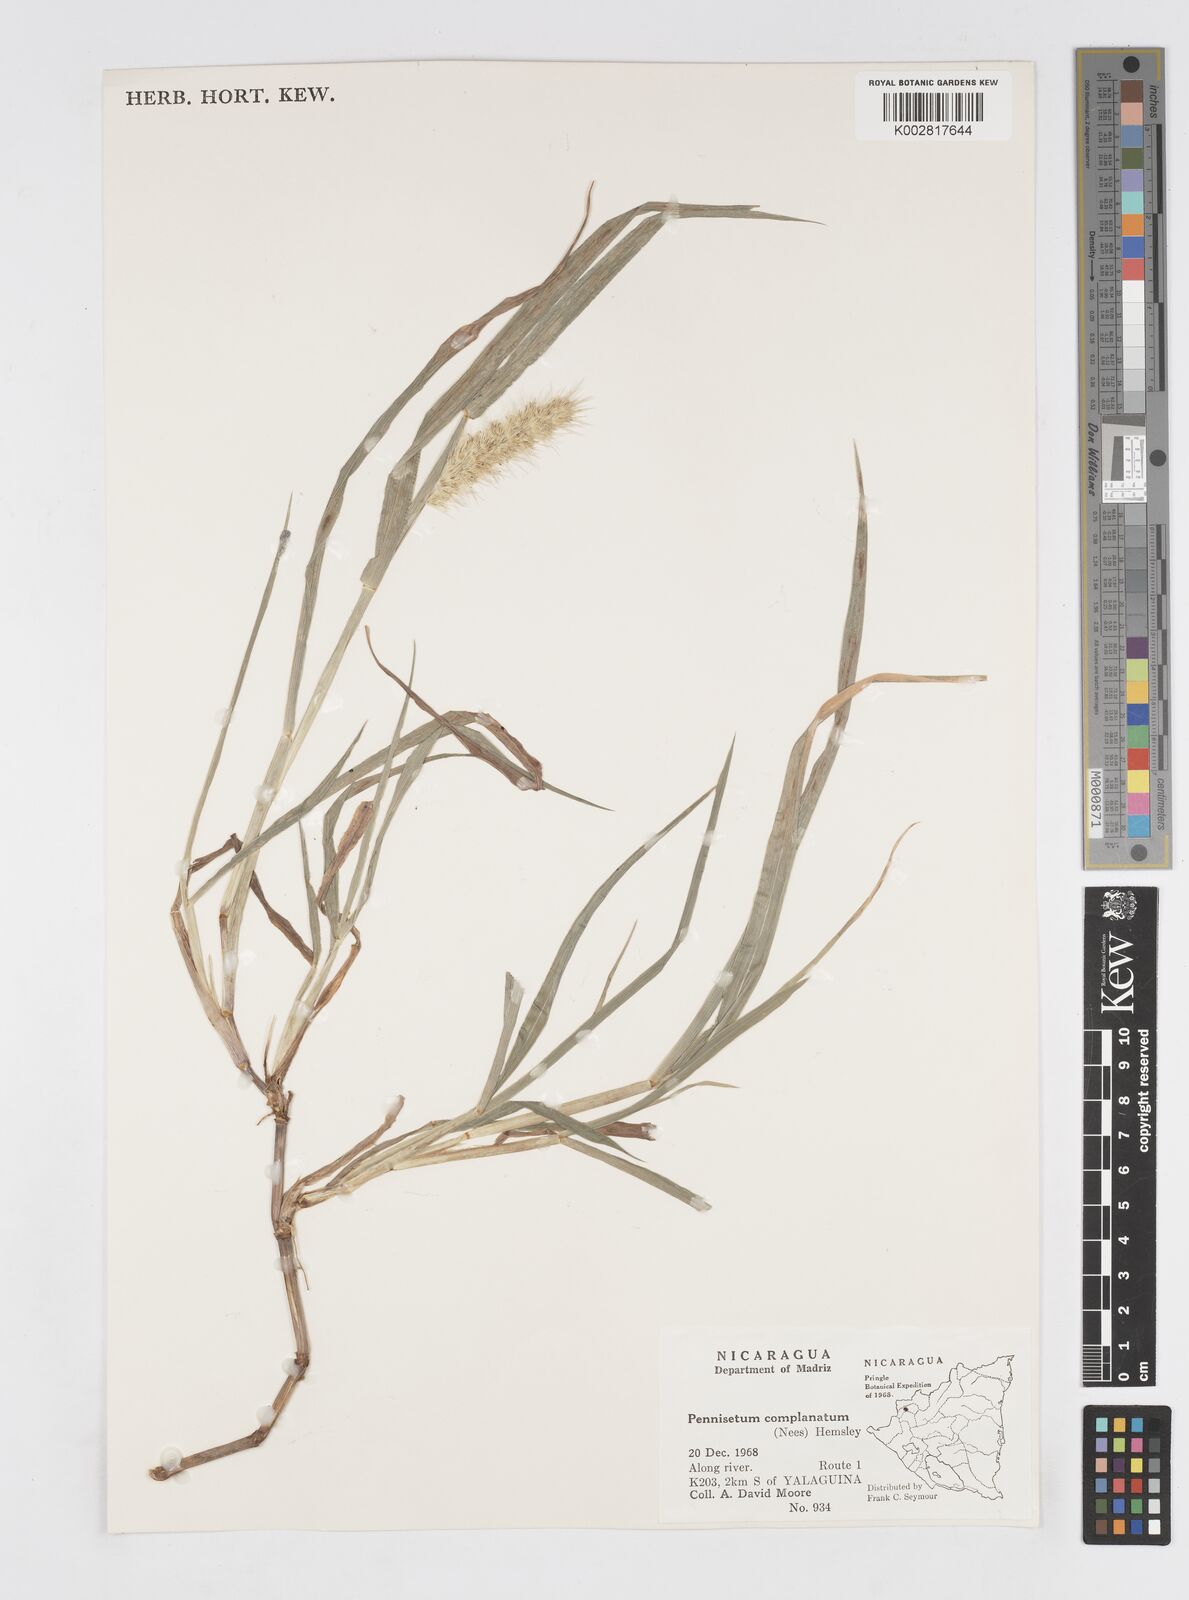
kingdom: Plantae
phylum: Tracheophyta
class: Liliopsida
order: Poales
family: Poaceae
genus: Cenchrus
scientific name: Cenchrus
